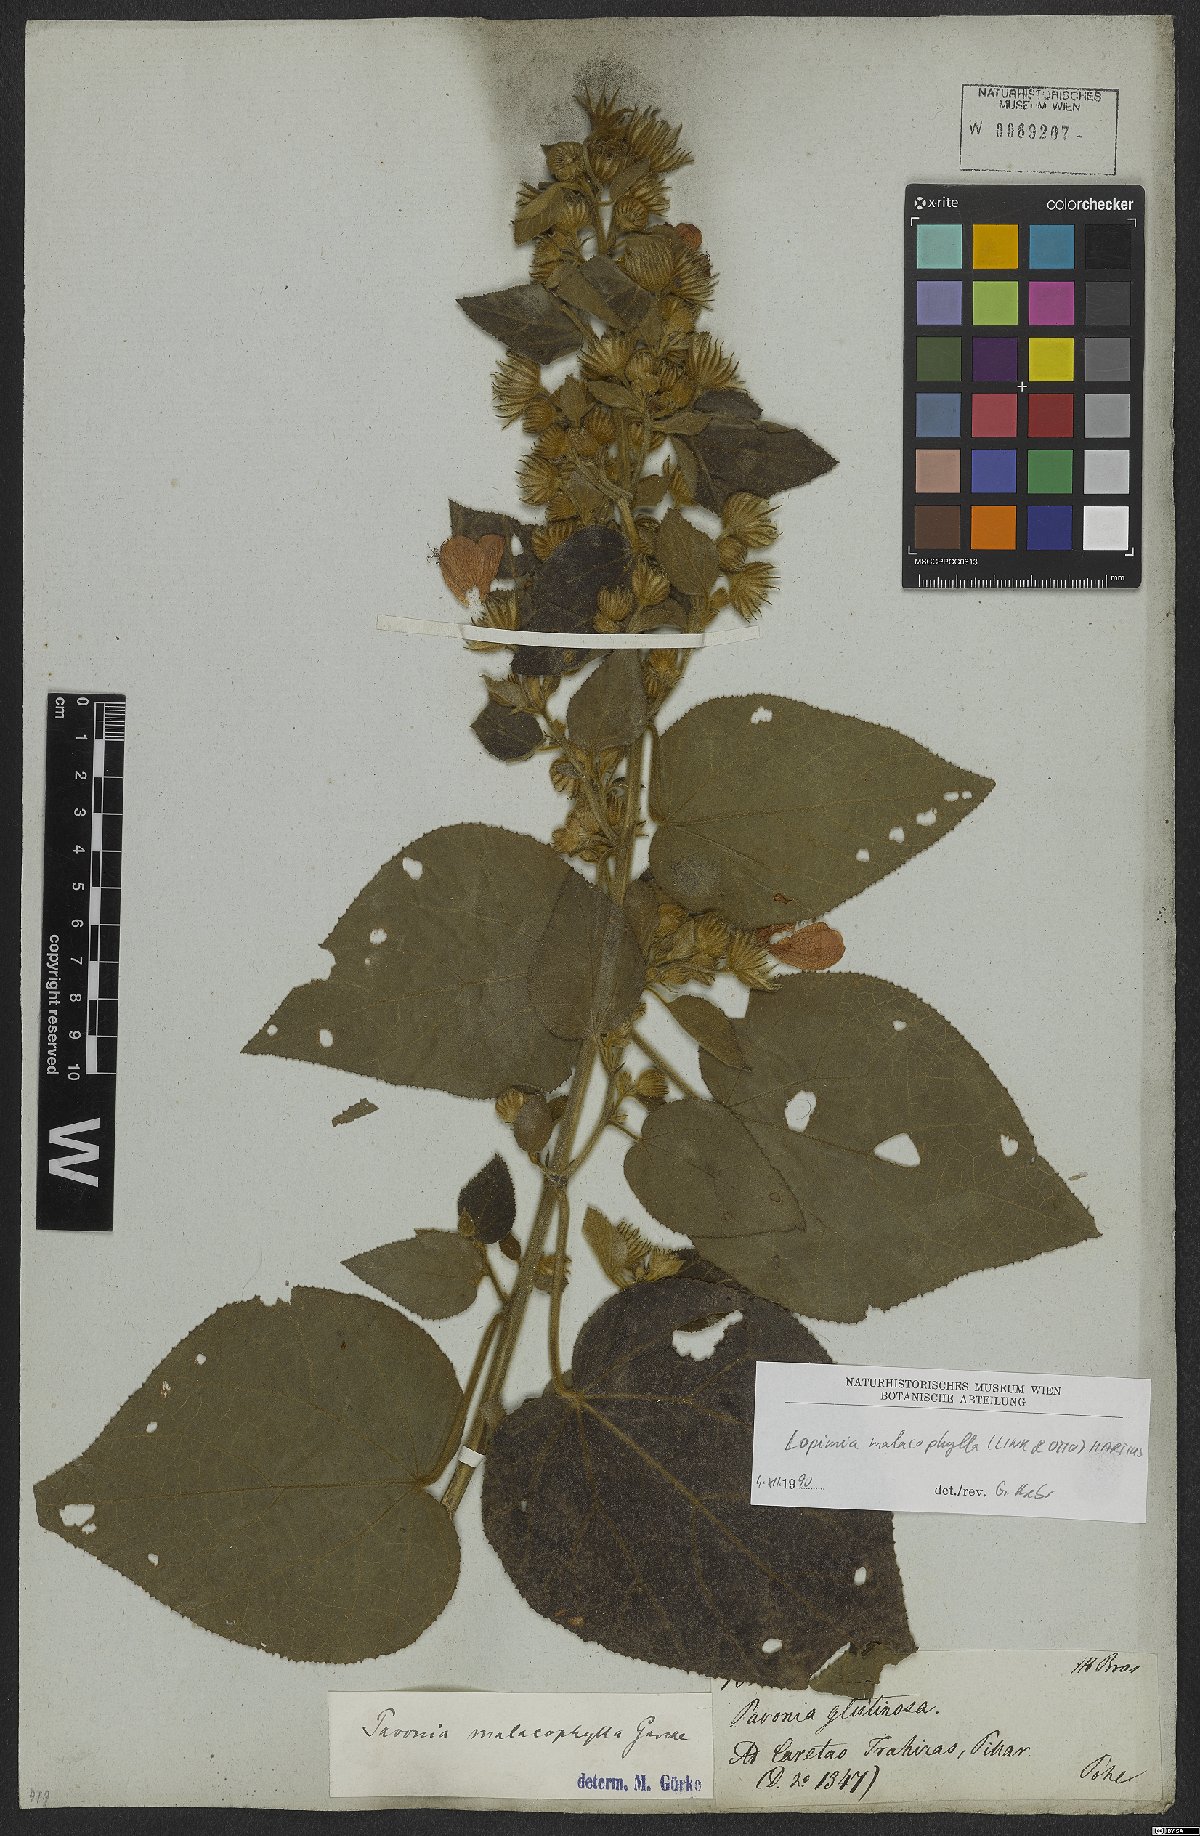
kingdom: Plantae
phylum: Tracheophyta
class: Magnoliopsida
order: Malvales
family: Malvaceae
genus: Pavonia
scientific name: Pavonia malacophylla
